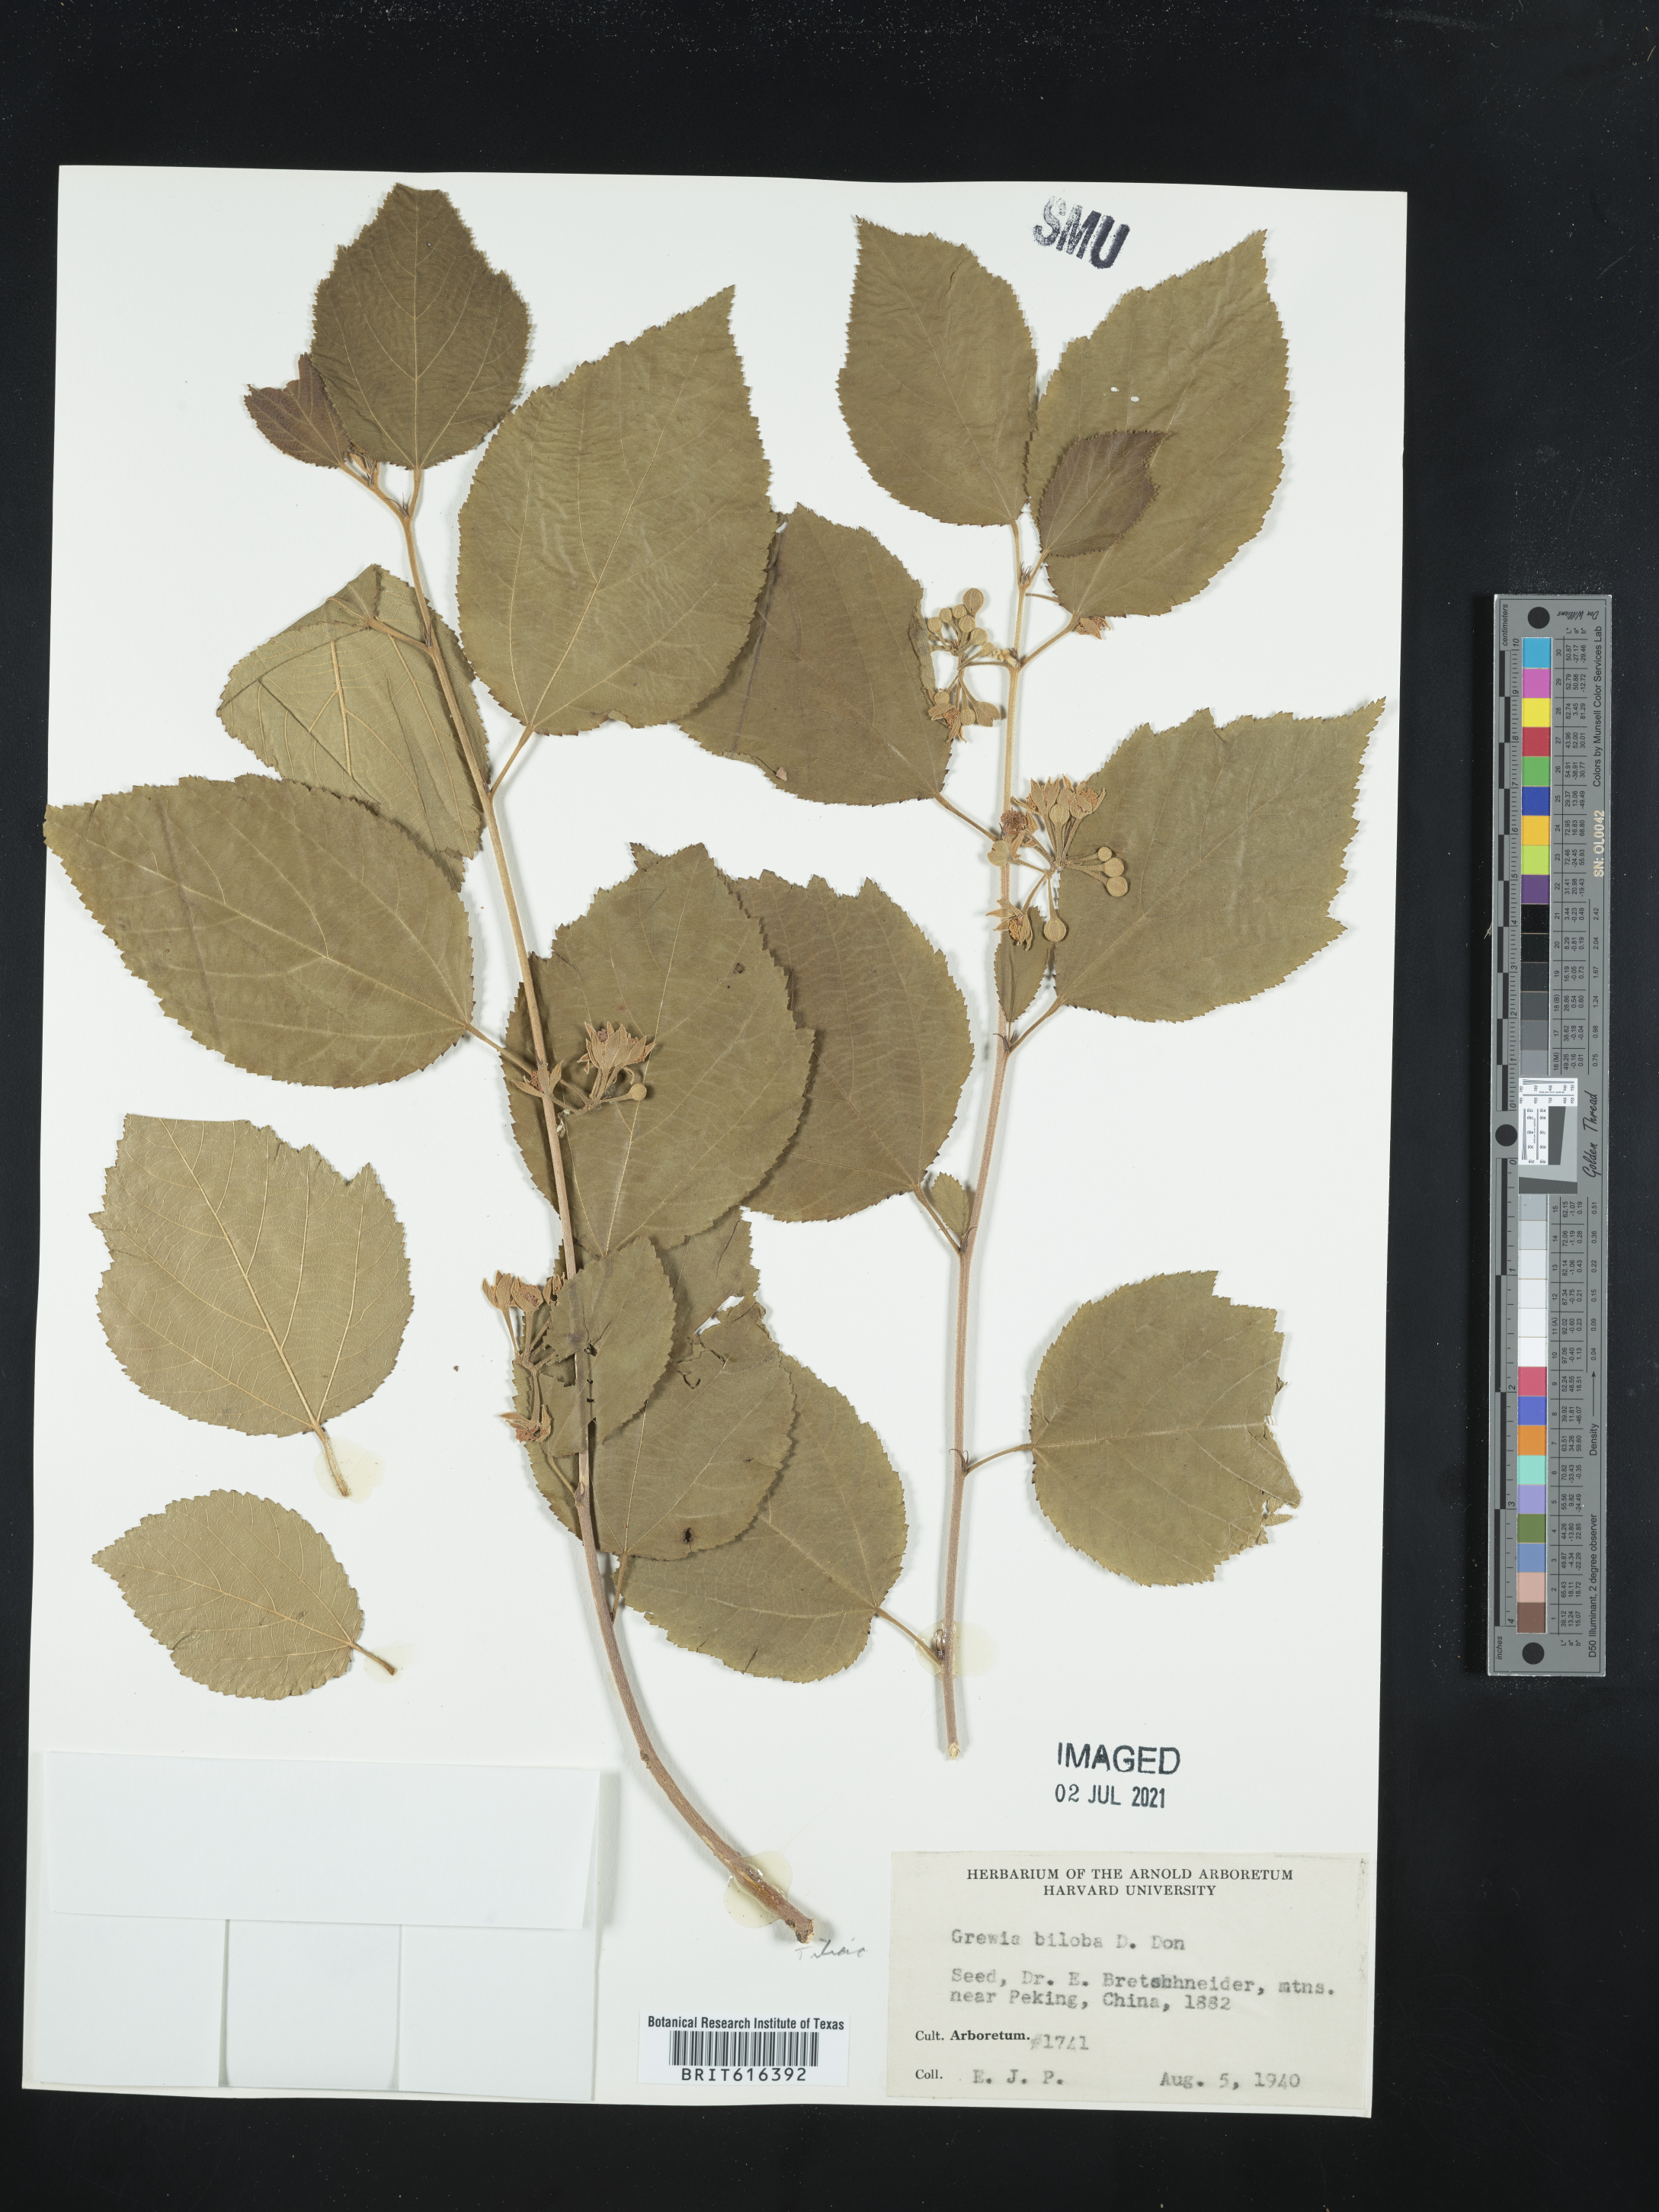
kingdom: Plantae
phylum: Tracheophyta
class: Magnoliopsida
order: Malvales
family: Malvaceae
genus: Grewia
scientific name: Grewia biloba
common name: Bilobed grewia
